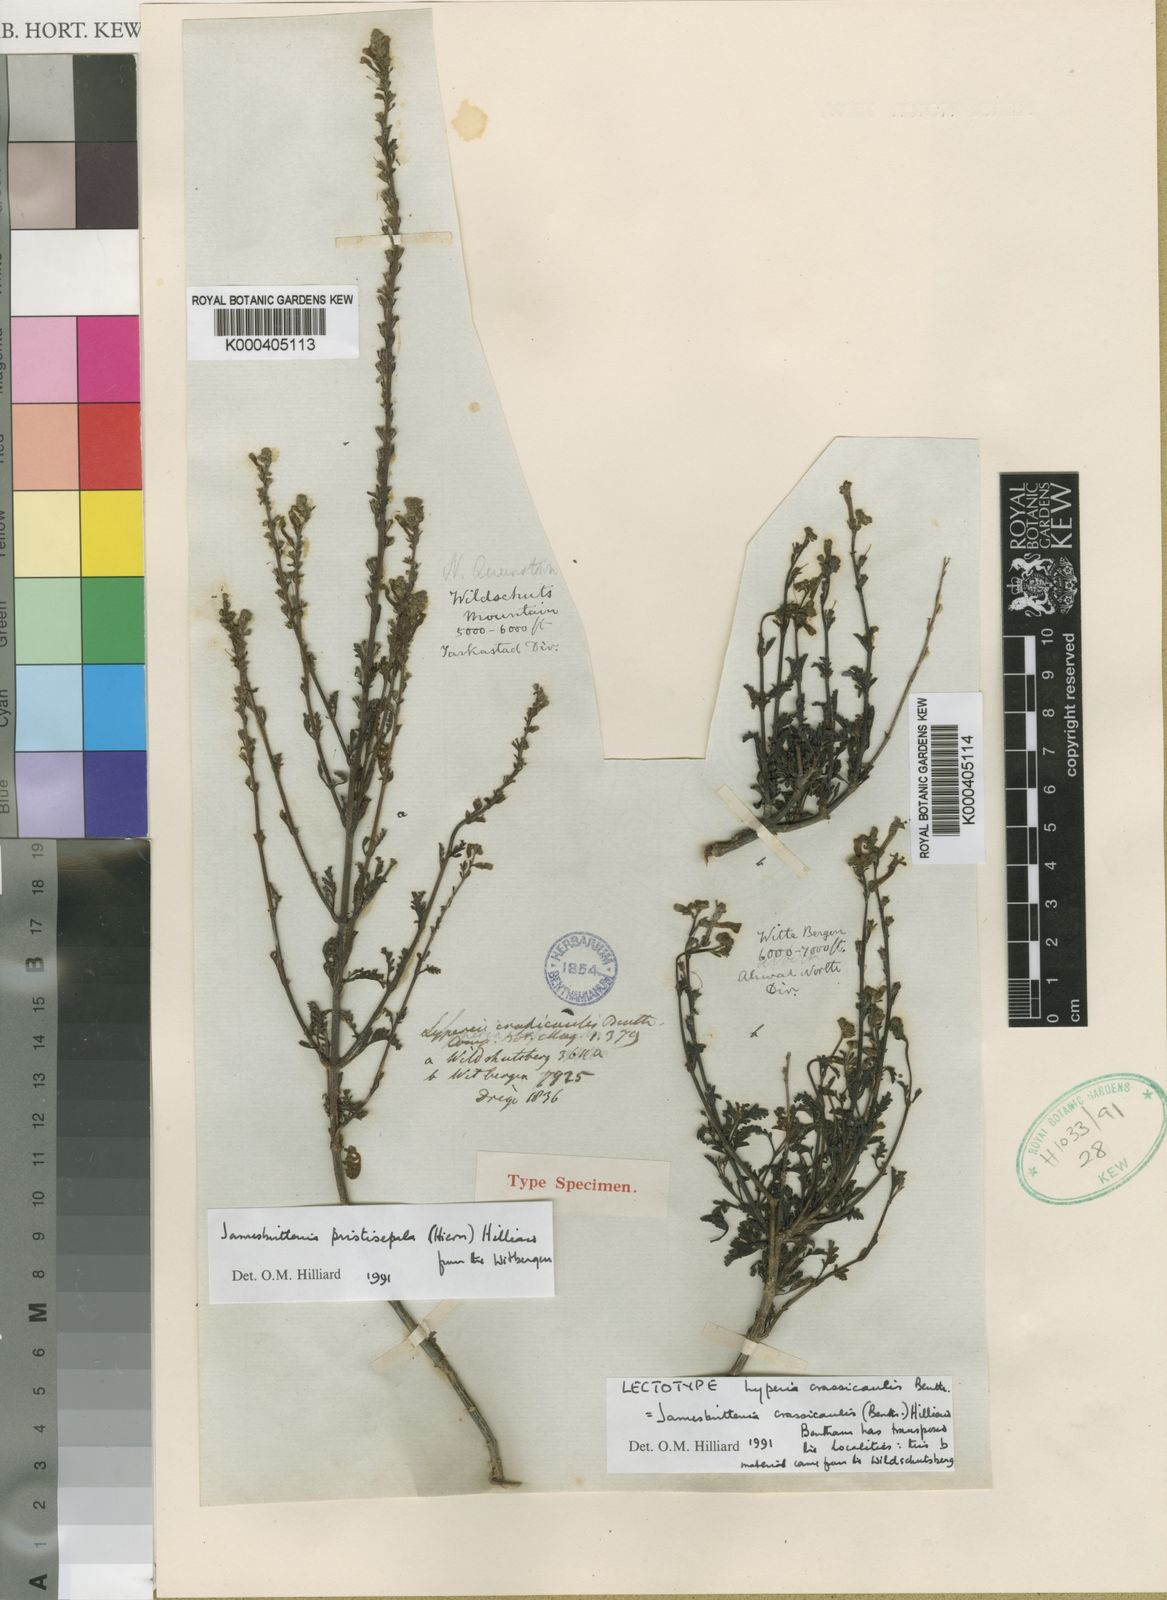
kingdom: Plantae
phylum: Tracheophyta
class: Magnoliopsida
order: Lamiales
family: Scrophulariaceae
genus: Jamesbrittenia
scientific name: Jamesbrittenia crassicaulis
